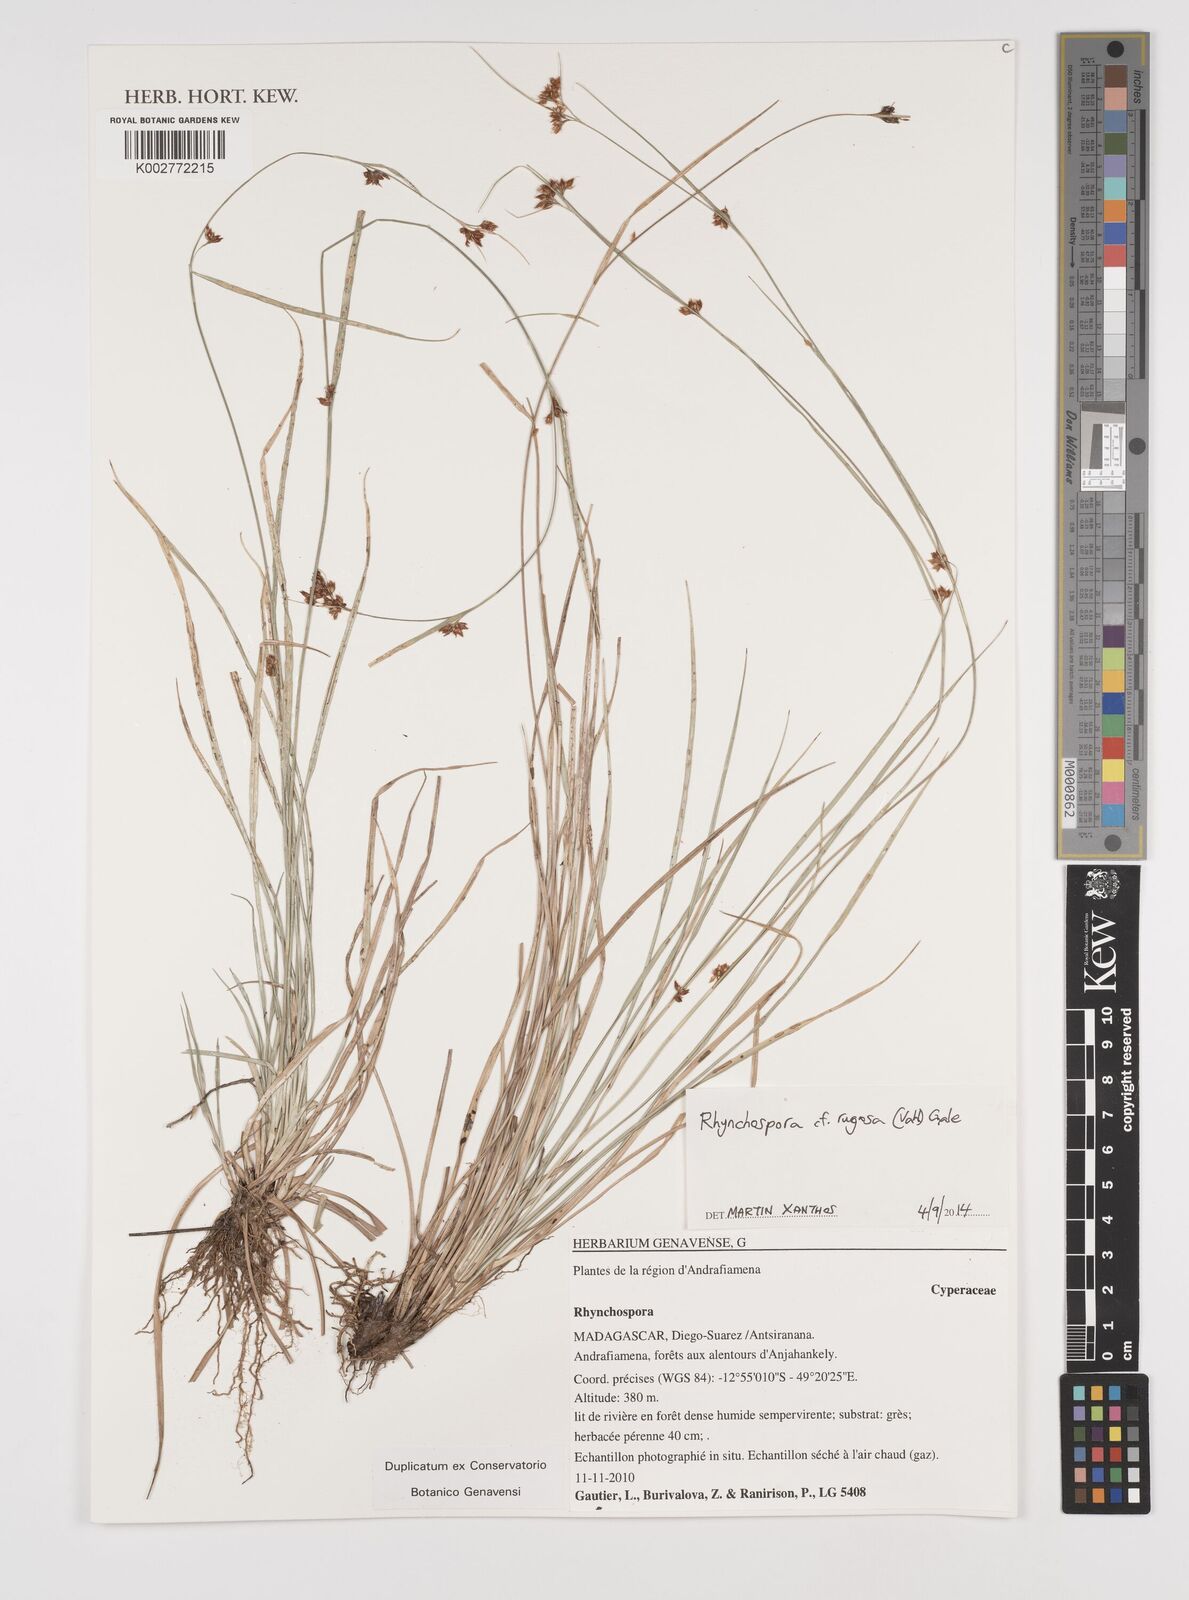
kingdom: Plantae
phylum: Tracheophyta
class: Liliopsida
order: Poales
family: Cyperaceae
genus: Rhynchospora
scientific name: Rhynchospora rugosa
